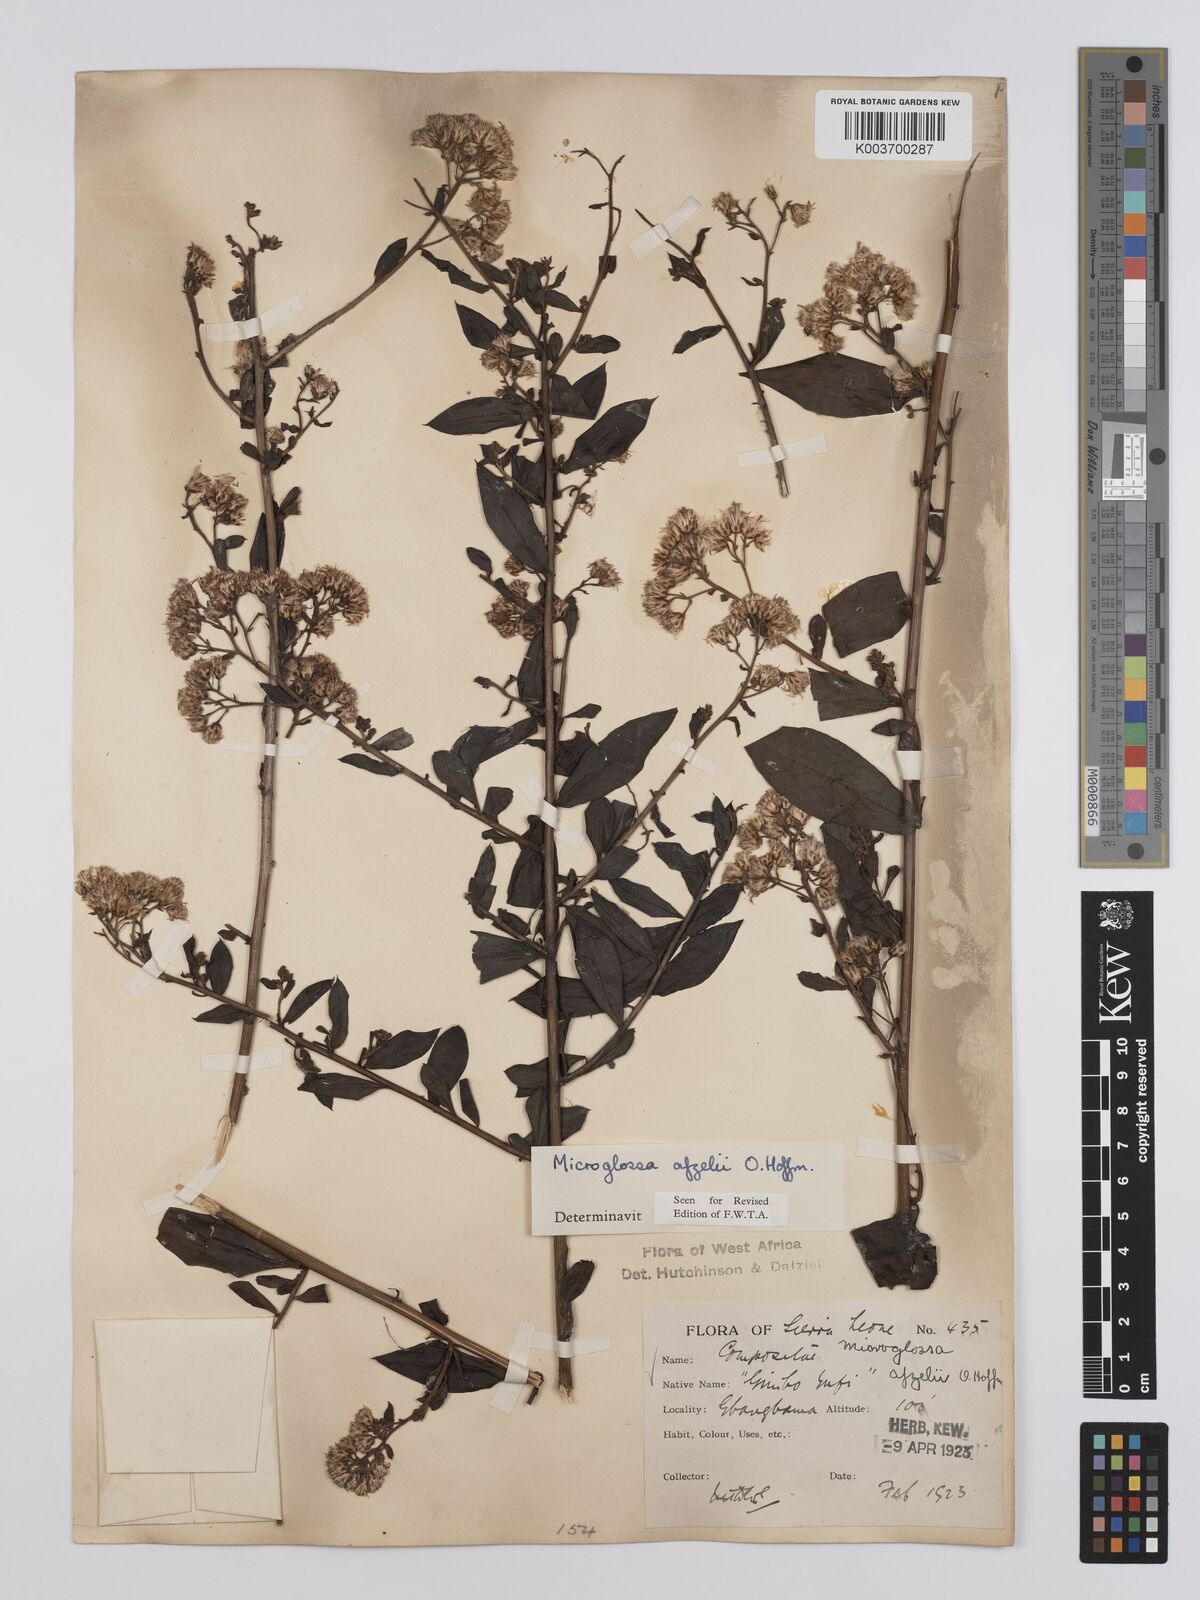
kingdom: Plantae
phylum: Tracheophyta
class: Magnoliopsida
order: Asterales
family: Asteraceae
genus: Microglossa
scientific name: Microglossa afzelii
